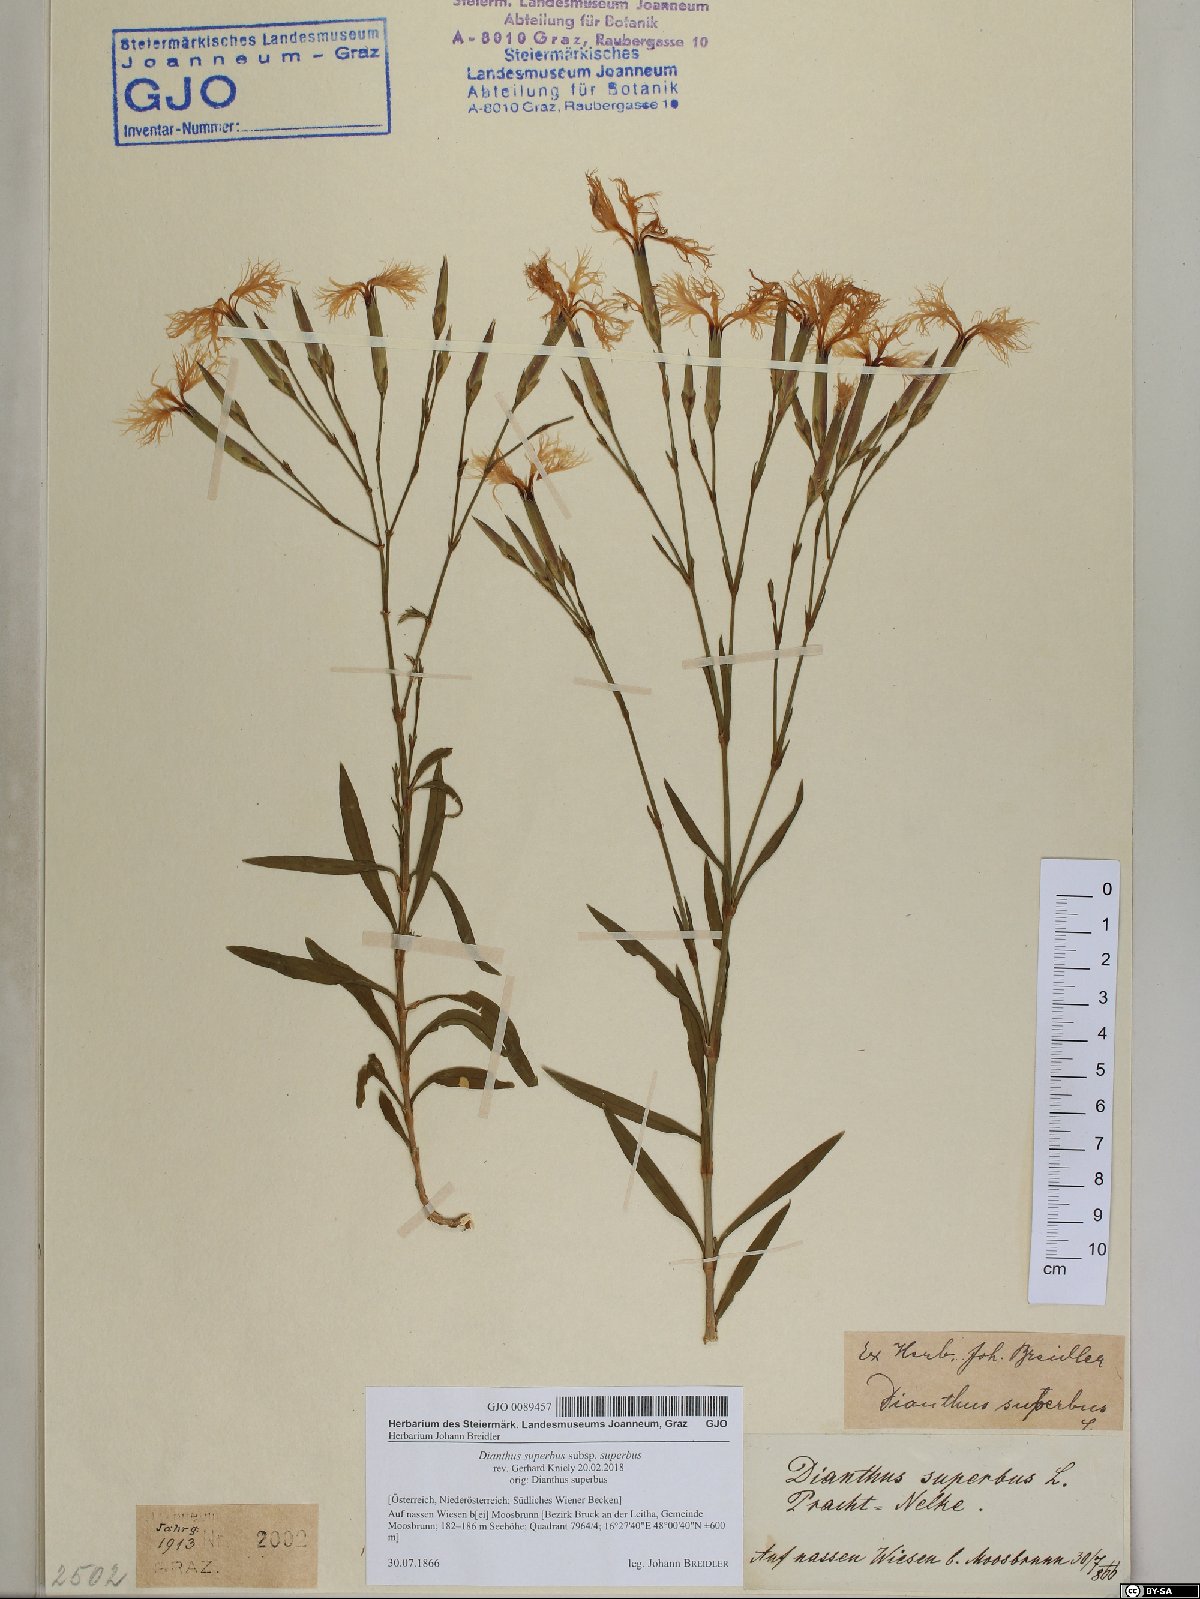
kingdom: Plantae
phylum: Tracheophyta
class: Magnoliopsida
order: Caryophyllales
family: Caryophyllaceae
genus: Dianthus
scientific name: Dianthus superbus
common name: Fringed pink
